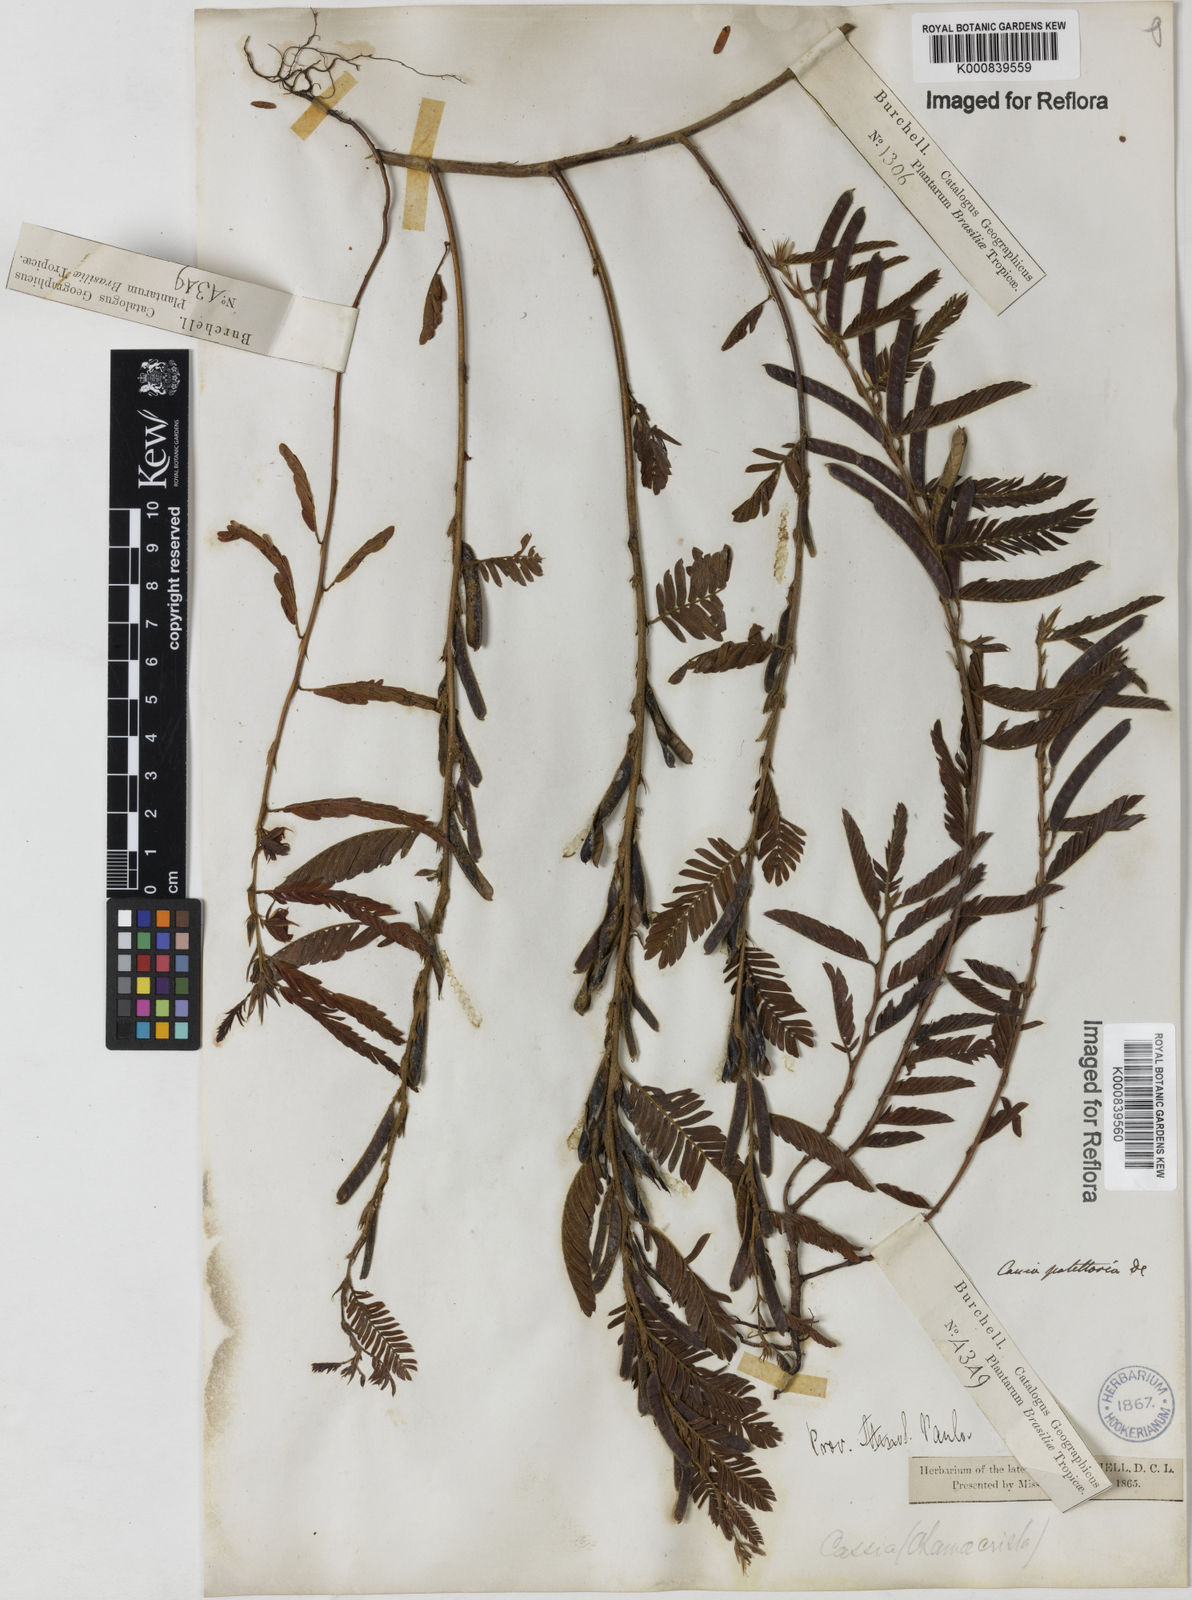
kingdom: Plantae
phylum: Tracheophyta
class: Magnoliopsida
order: Fabales
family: Fabaceae
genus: Chamaecrista
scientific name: Chamaecrista nictitans
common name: Sensitive cassia
